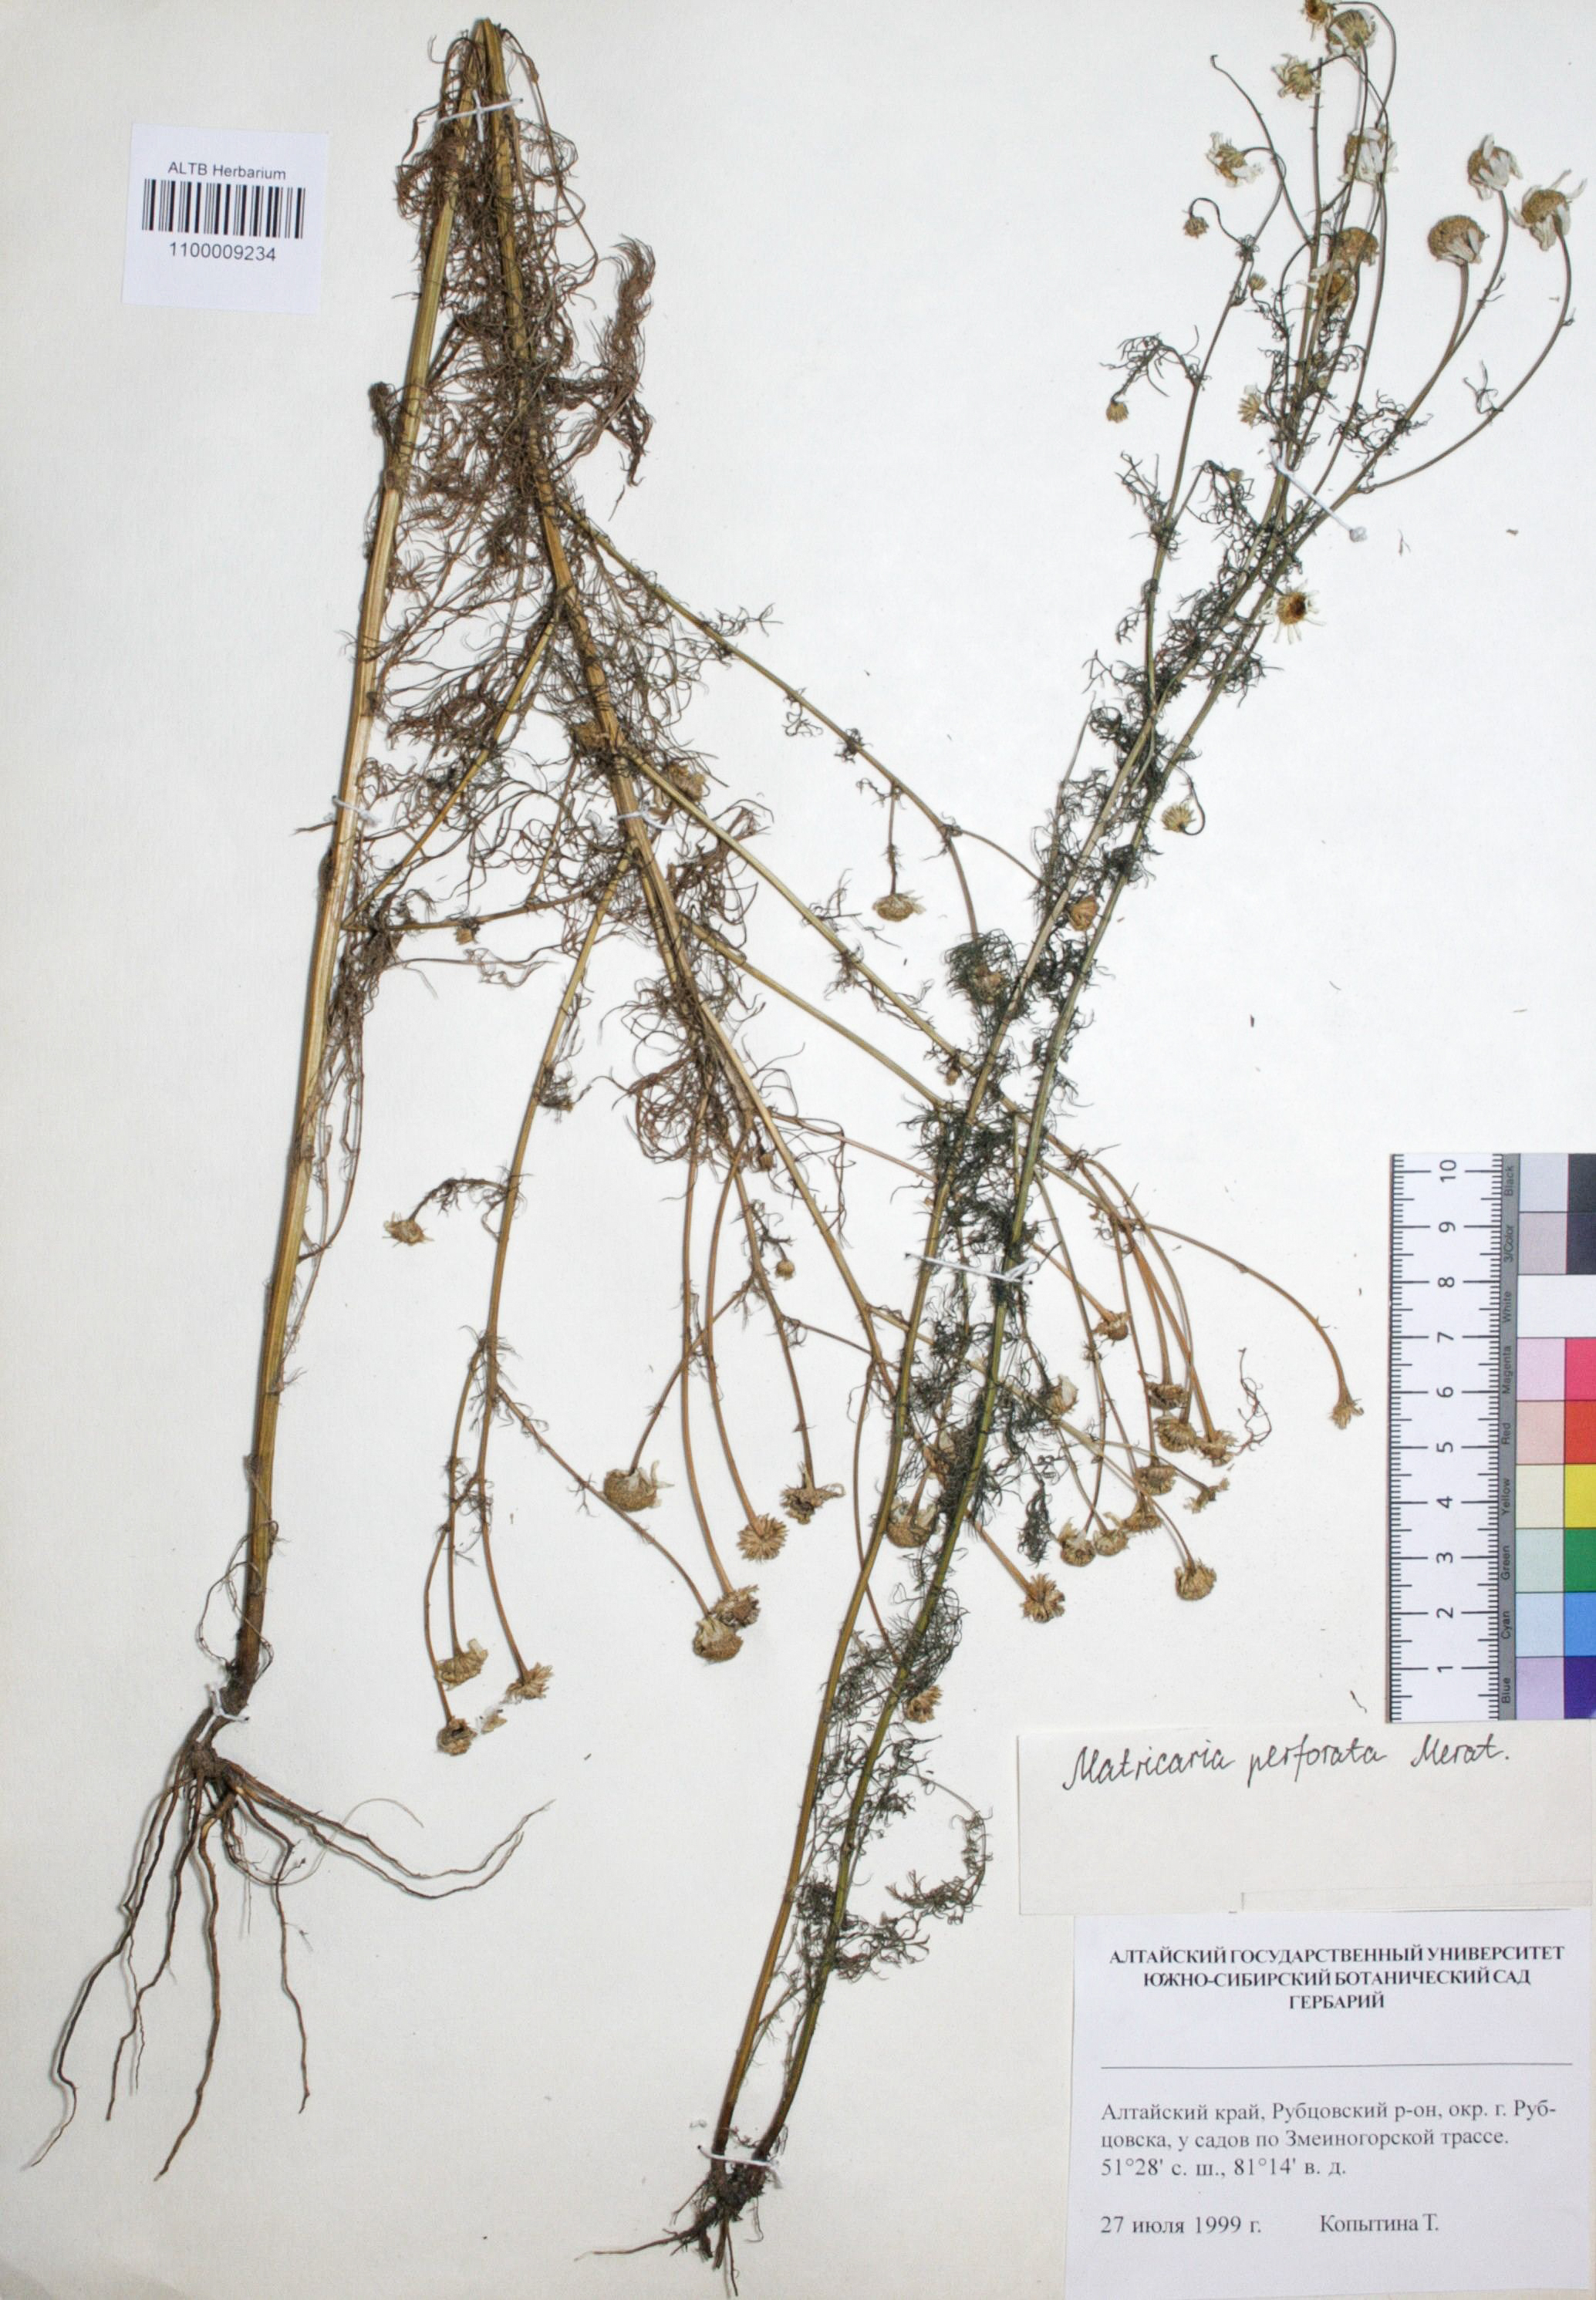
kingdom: Plantae
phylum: Tracheophyta
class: Magnoliopsida
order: Asterales
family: Asteraceae
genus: Tripleurospermum
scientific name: Tripleurospermum inodorum
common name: Scentless mayweed
